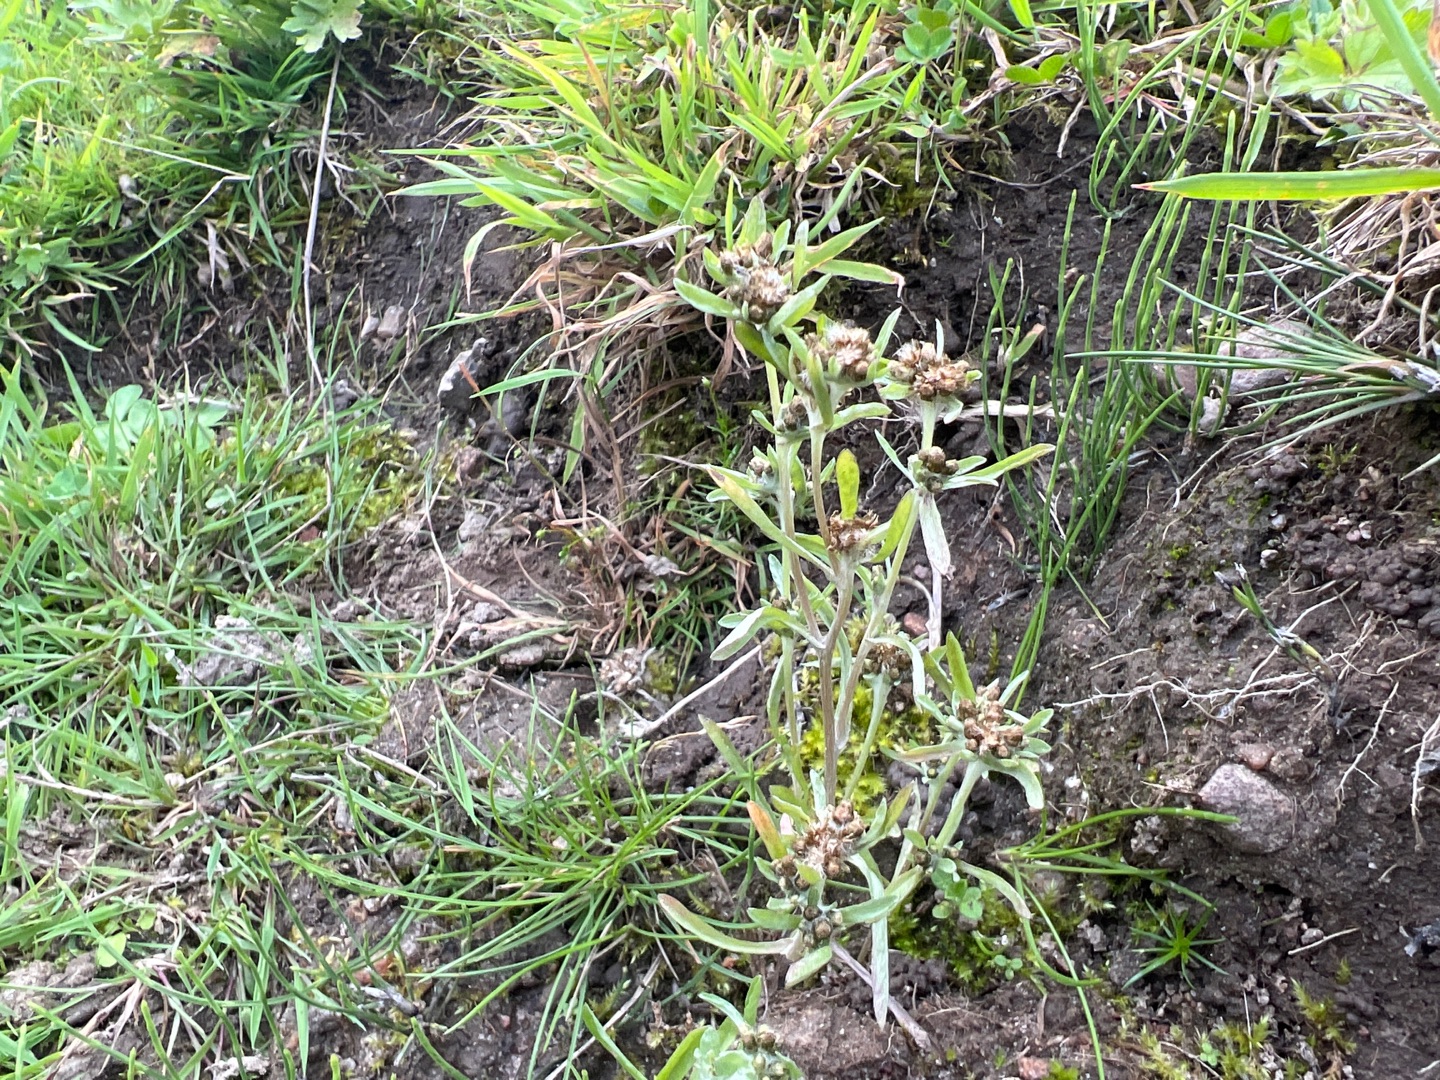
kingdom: Plantae
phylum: Tracheophyta
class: Magnoliopsida
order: Asterales
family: Asteraceae
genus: Gnaphalium
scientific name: Gnaphalium uliginosum
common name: Sump-evighedsblomst
